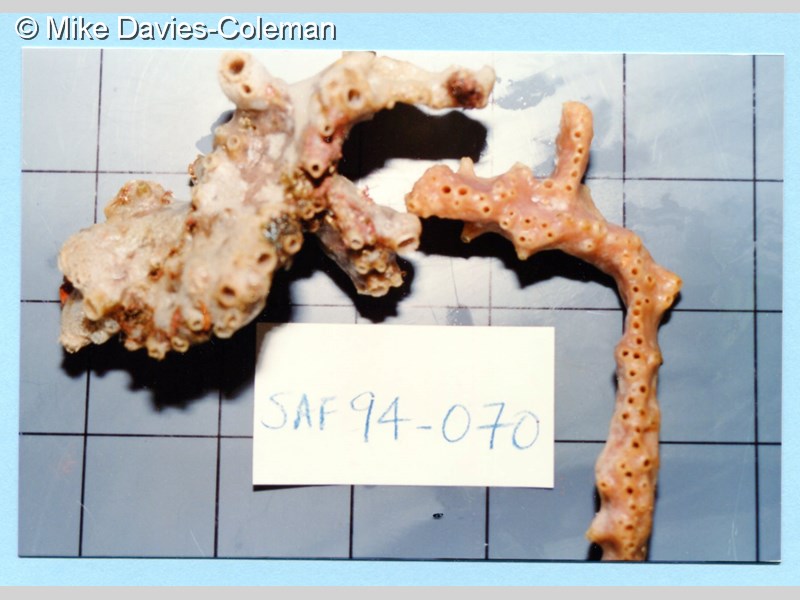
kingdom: Animalia
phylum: Porifera
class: Demospongiae
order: Haplosclerida
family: Callyspongiidae
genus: Callyspongia
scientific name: Callyspongia
